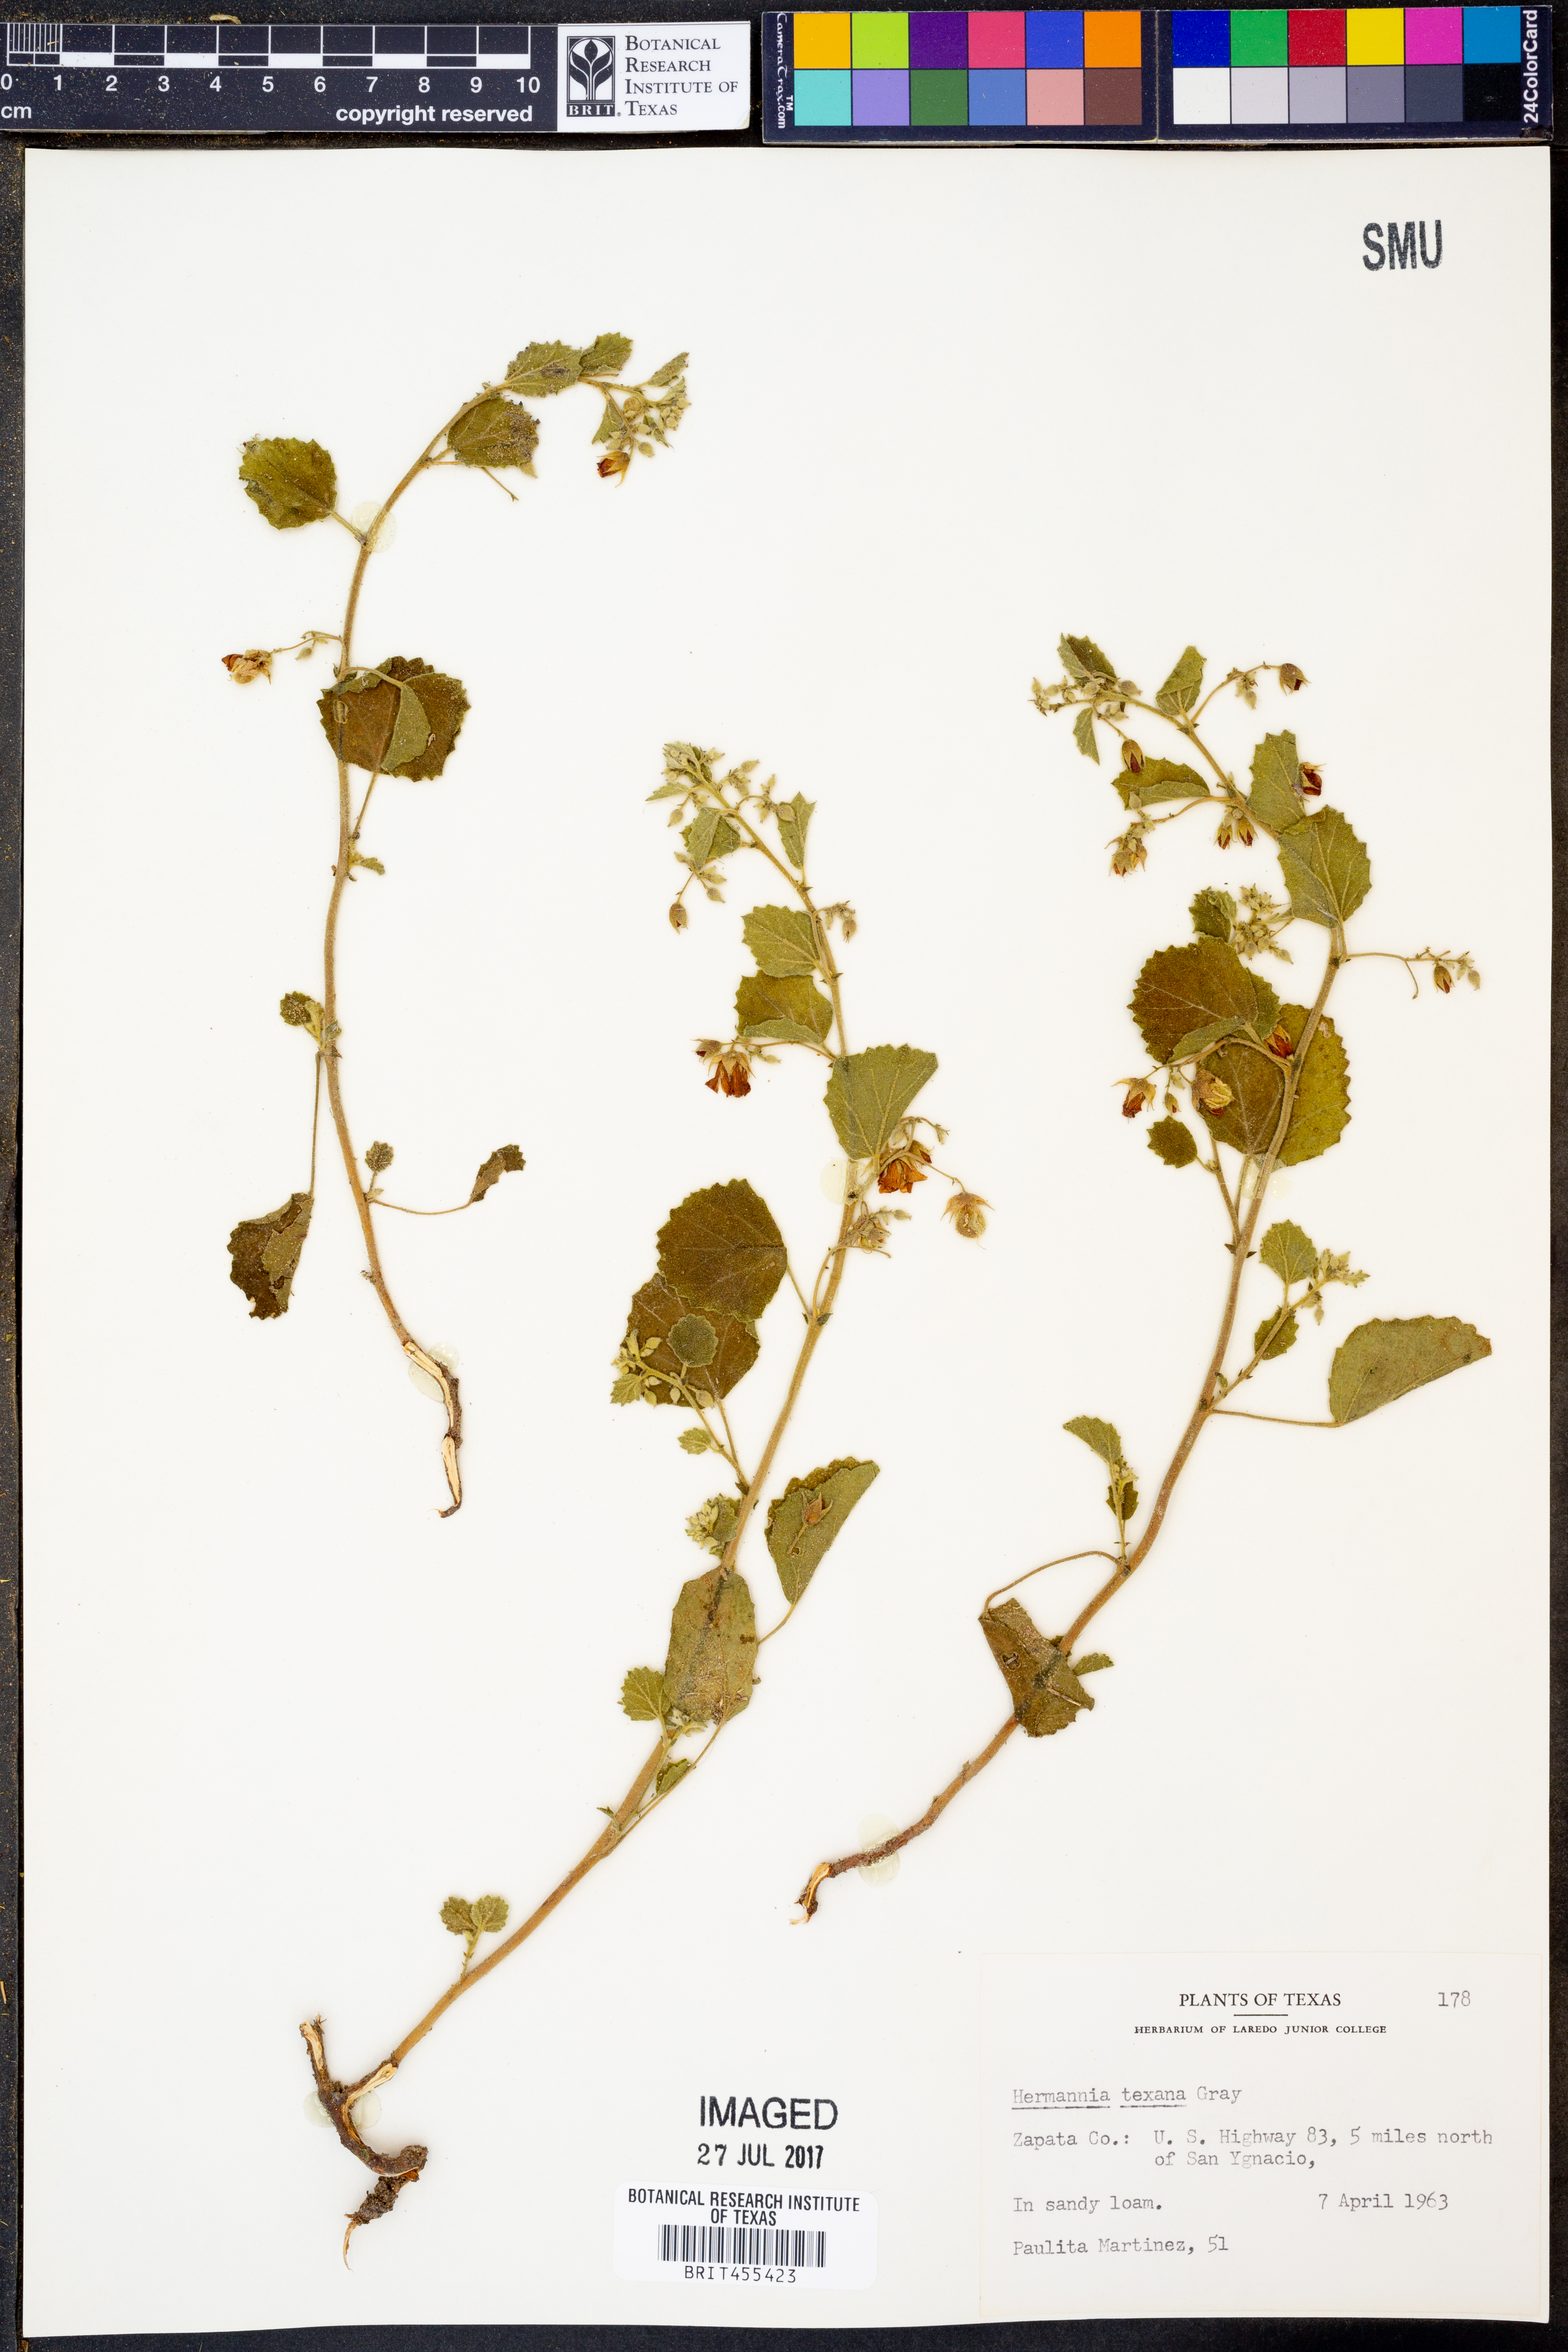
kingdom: Plantae
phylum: Tracheophyta
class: Magnoliopsida
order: Malvales
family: Malvaceae
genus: Hermannia
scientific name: Hermannia texana
